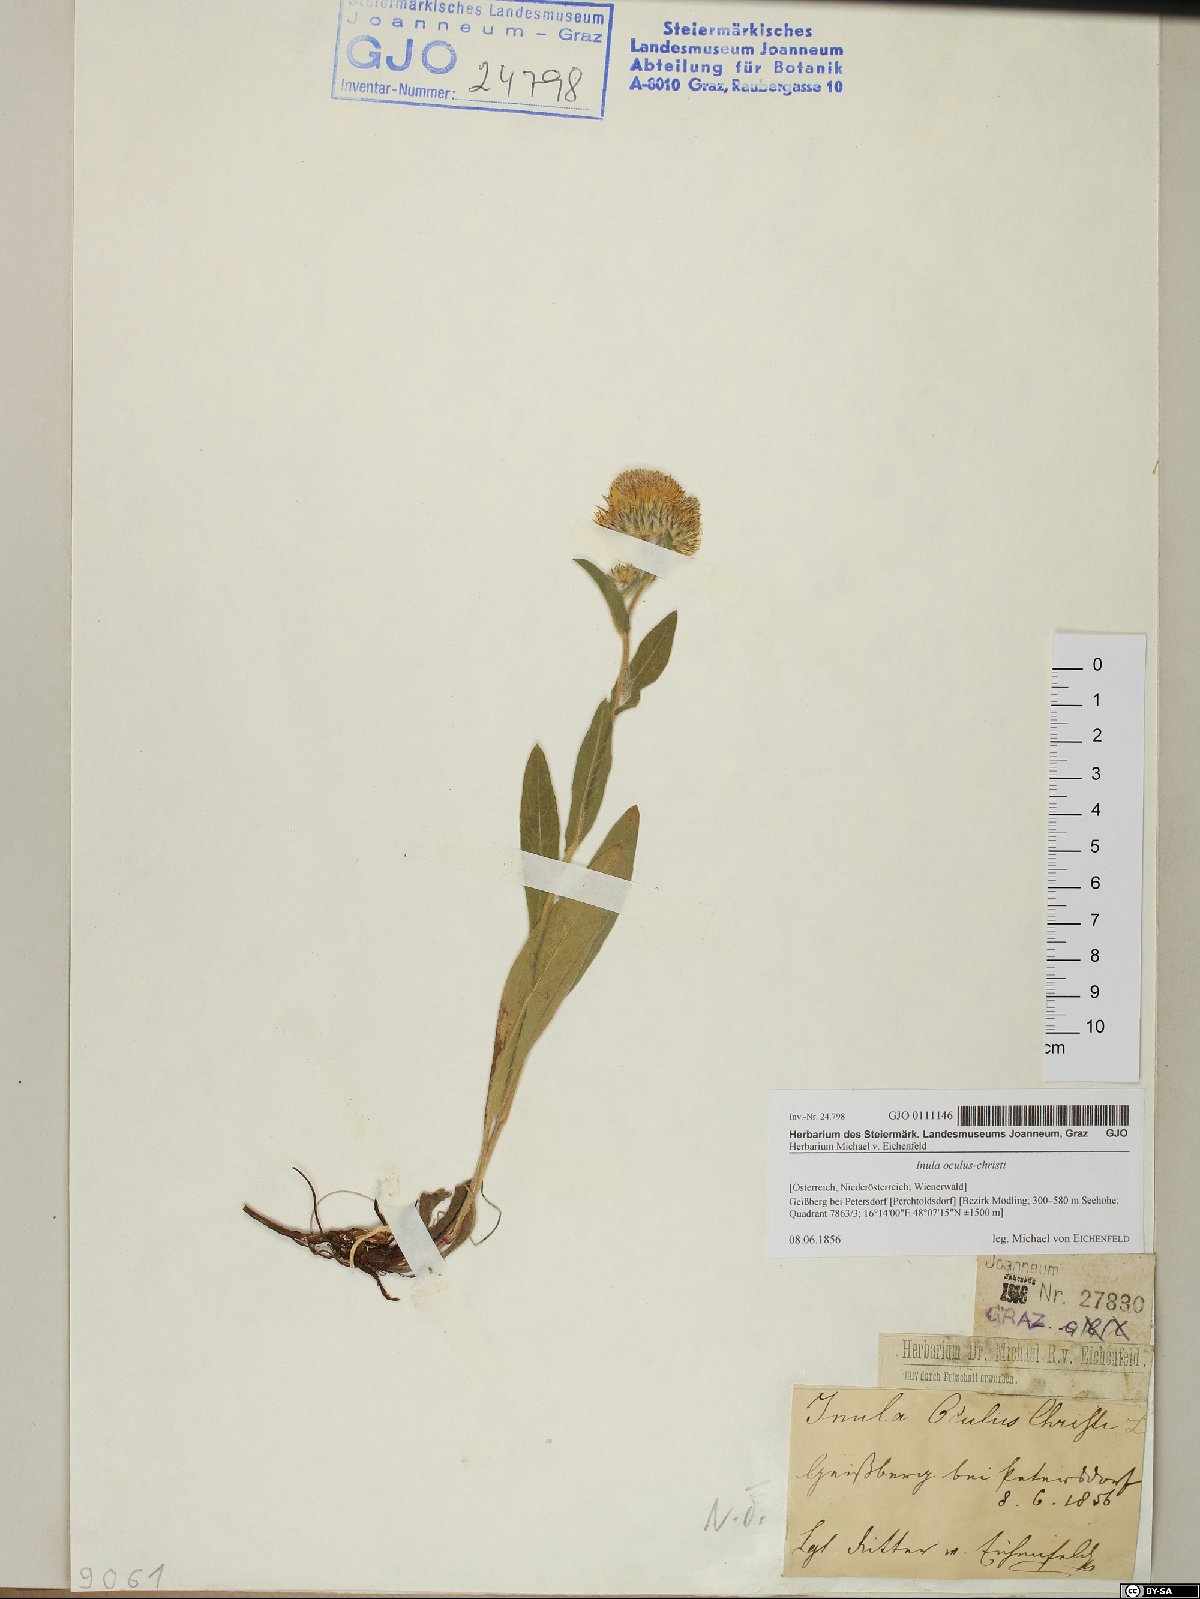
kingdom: Plantae
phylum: Tracheophyta
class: Magnoliopsida
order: Asterales
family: Asteraceae
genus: Pentanema
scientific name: Pentanema oculus-christi
